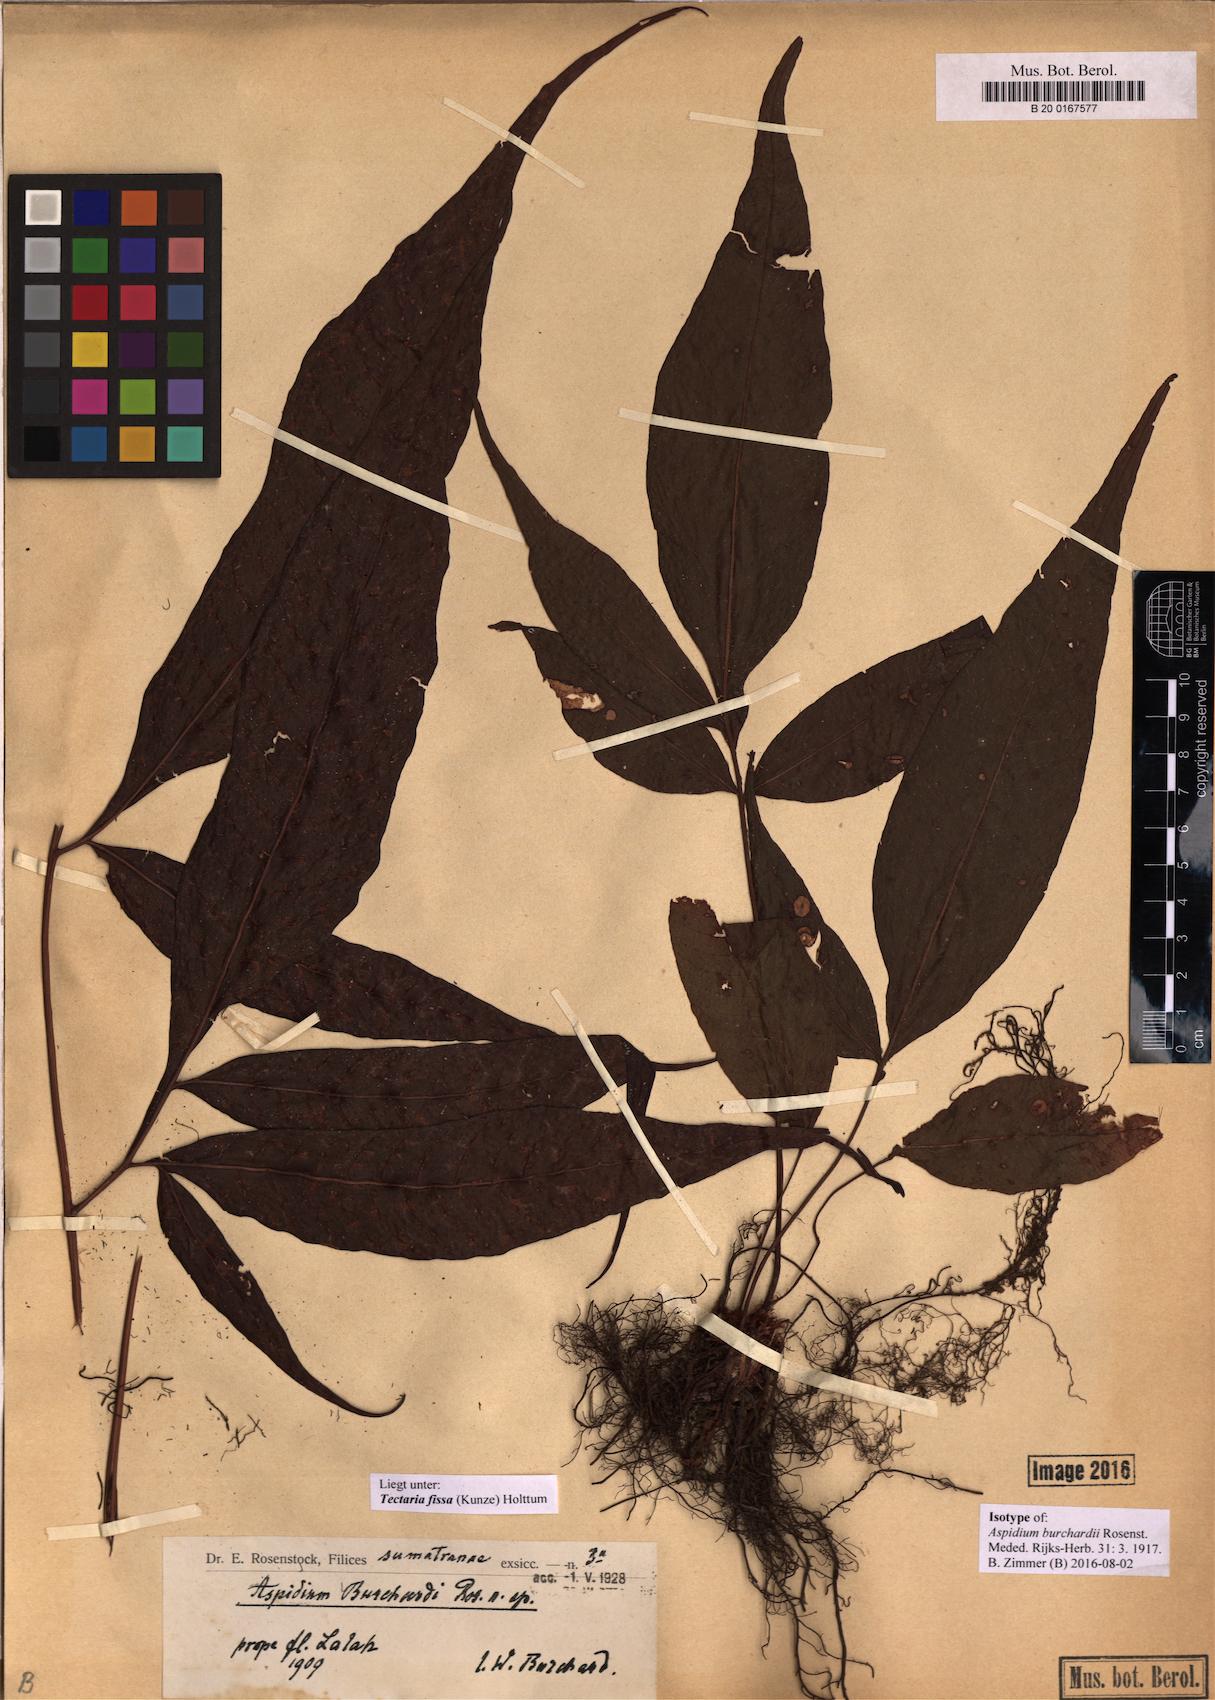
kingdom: Plantae
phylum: Tracheophyta
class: Polypodiopsida
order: Polypodiales
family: Tectariaceae
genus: Tectaria
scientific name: Tectaria fissa
